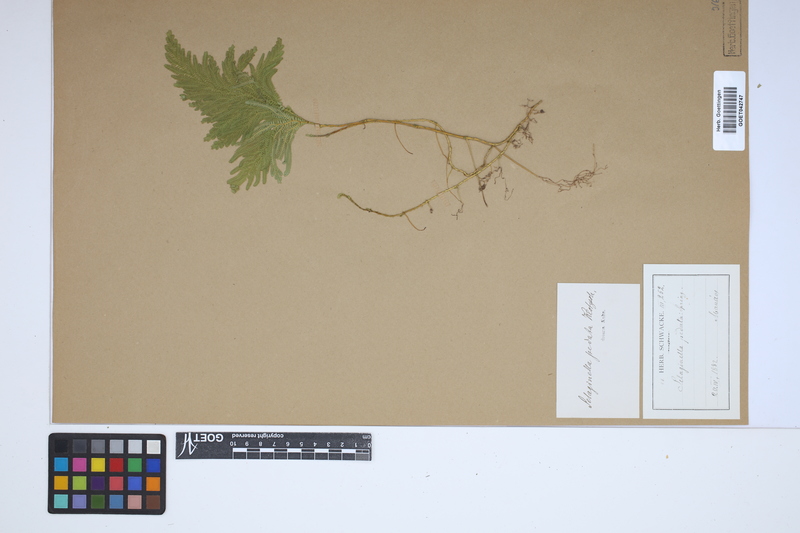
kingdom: Plantae
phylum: Tracheophyta
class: Lycopodiopsida
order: Selaginellales
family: Selaginellaceae
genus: Selaginella
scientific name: Selaginella pedata
